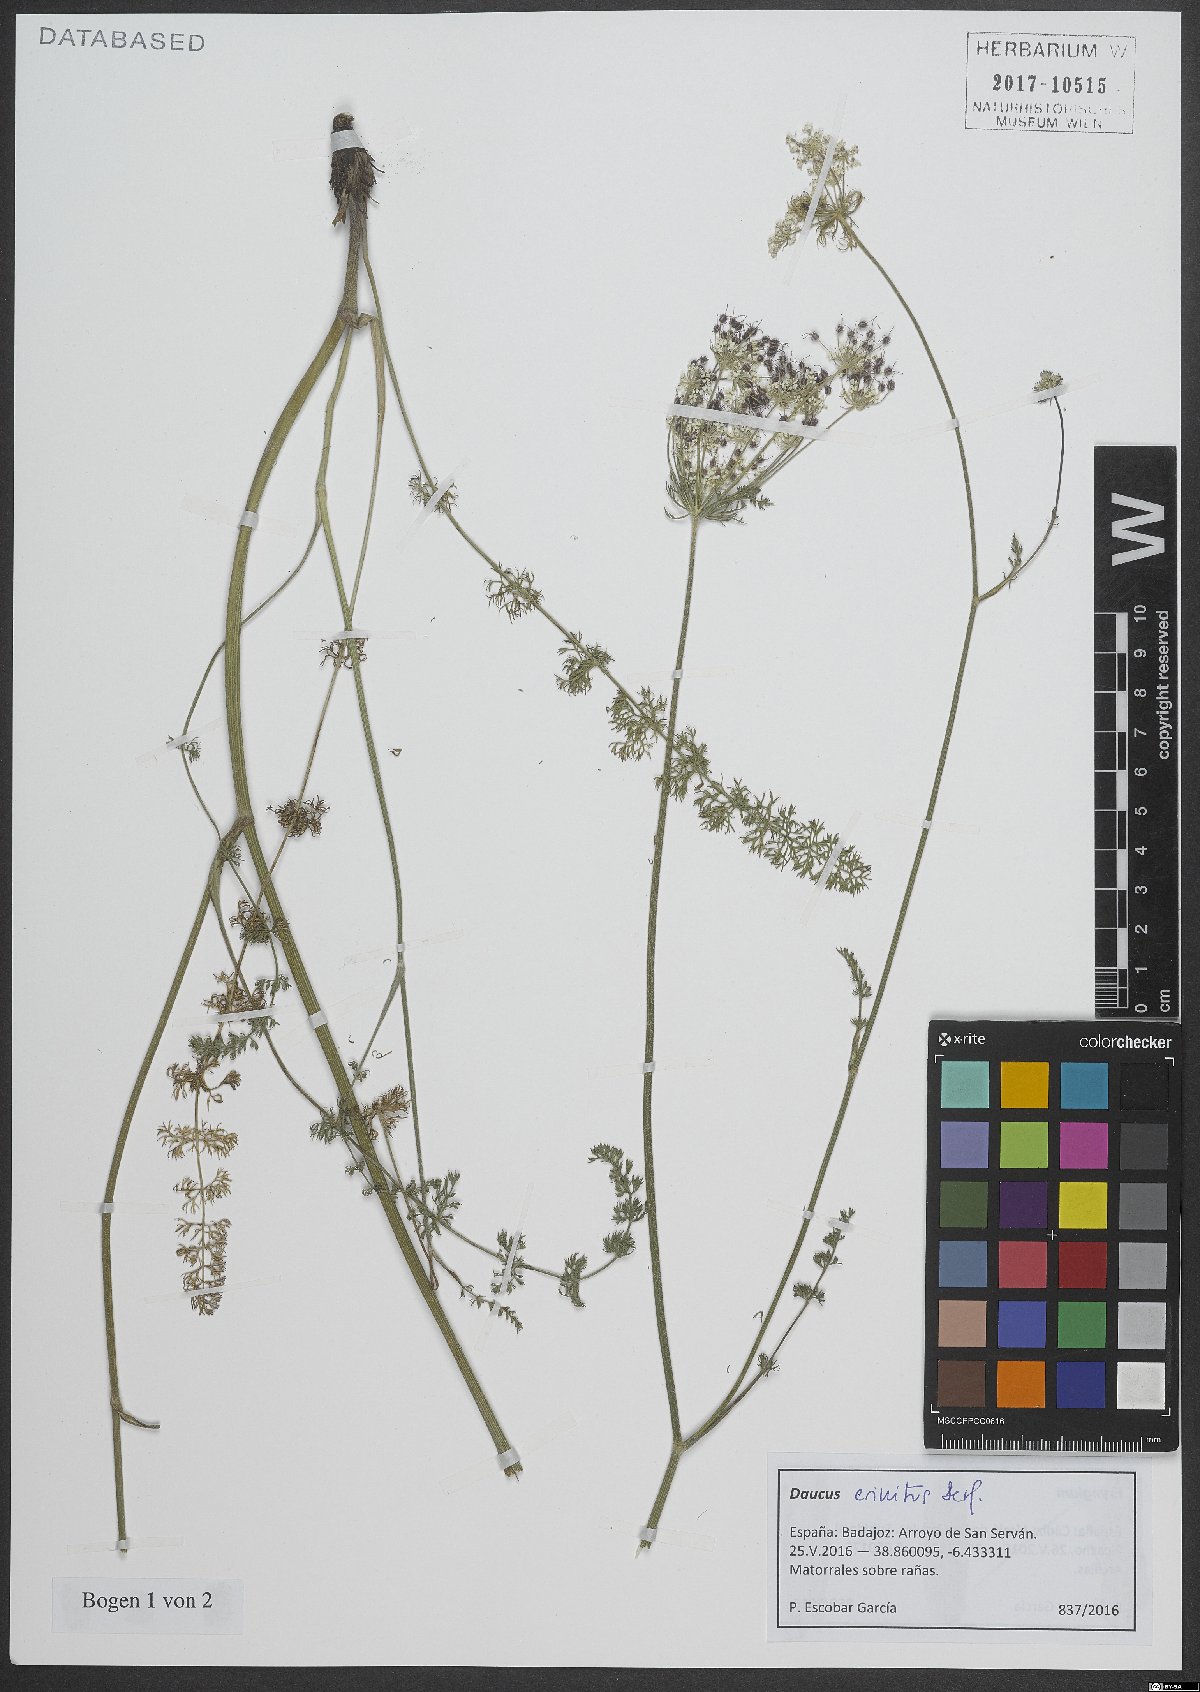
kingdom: Plantae
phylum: Tracheophyta
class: Magnoliopsida
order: Apiales
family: Apiaceae
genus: Daucus
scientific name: Daucus crinitus
